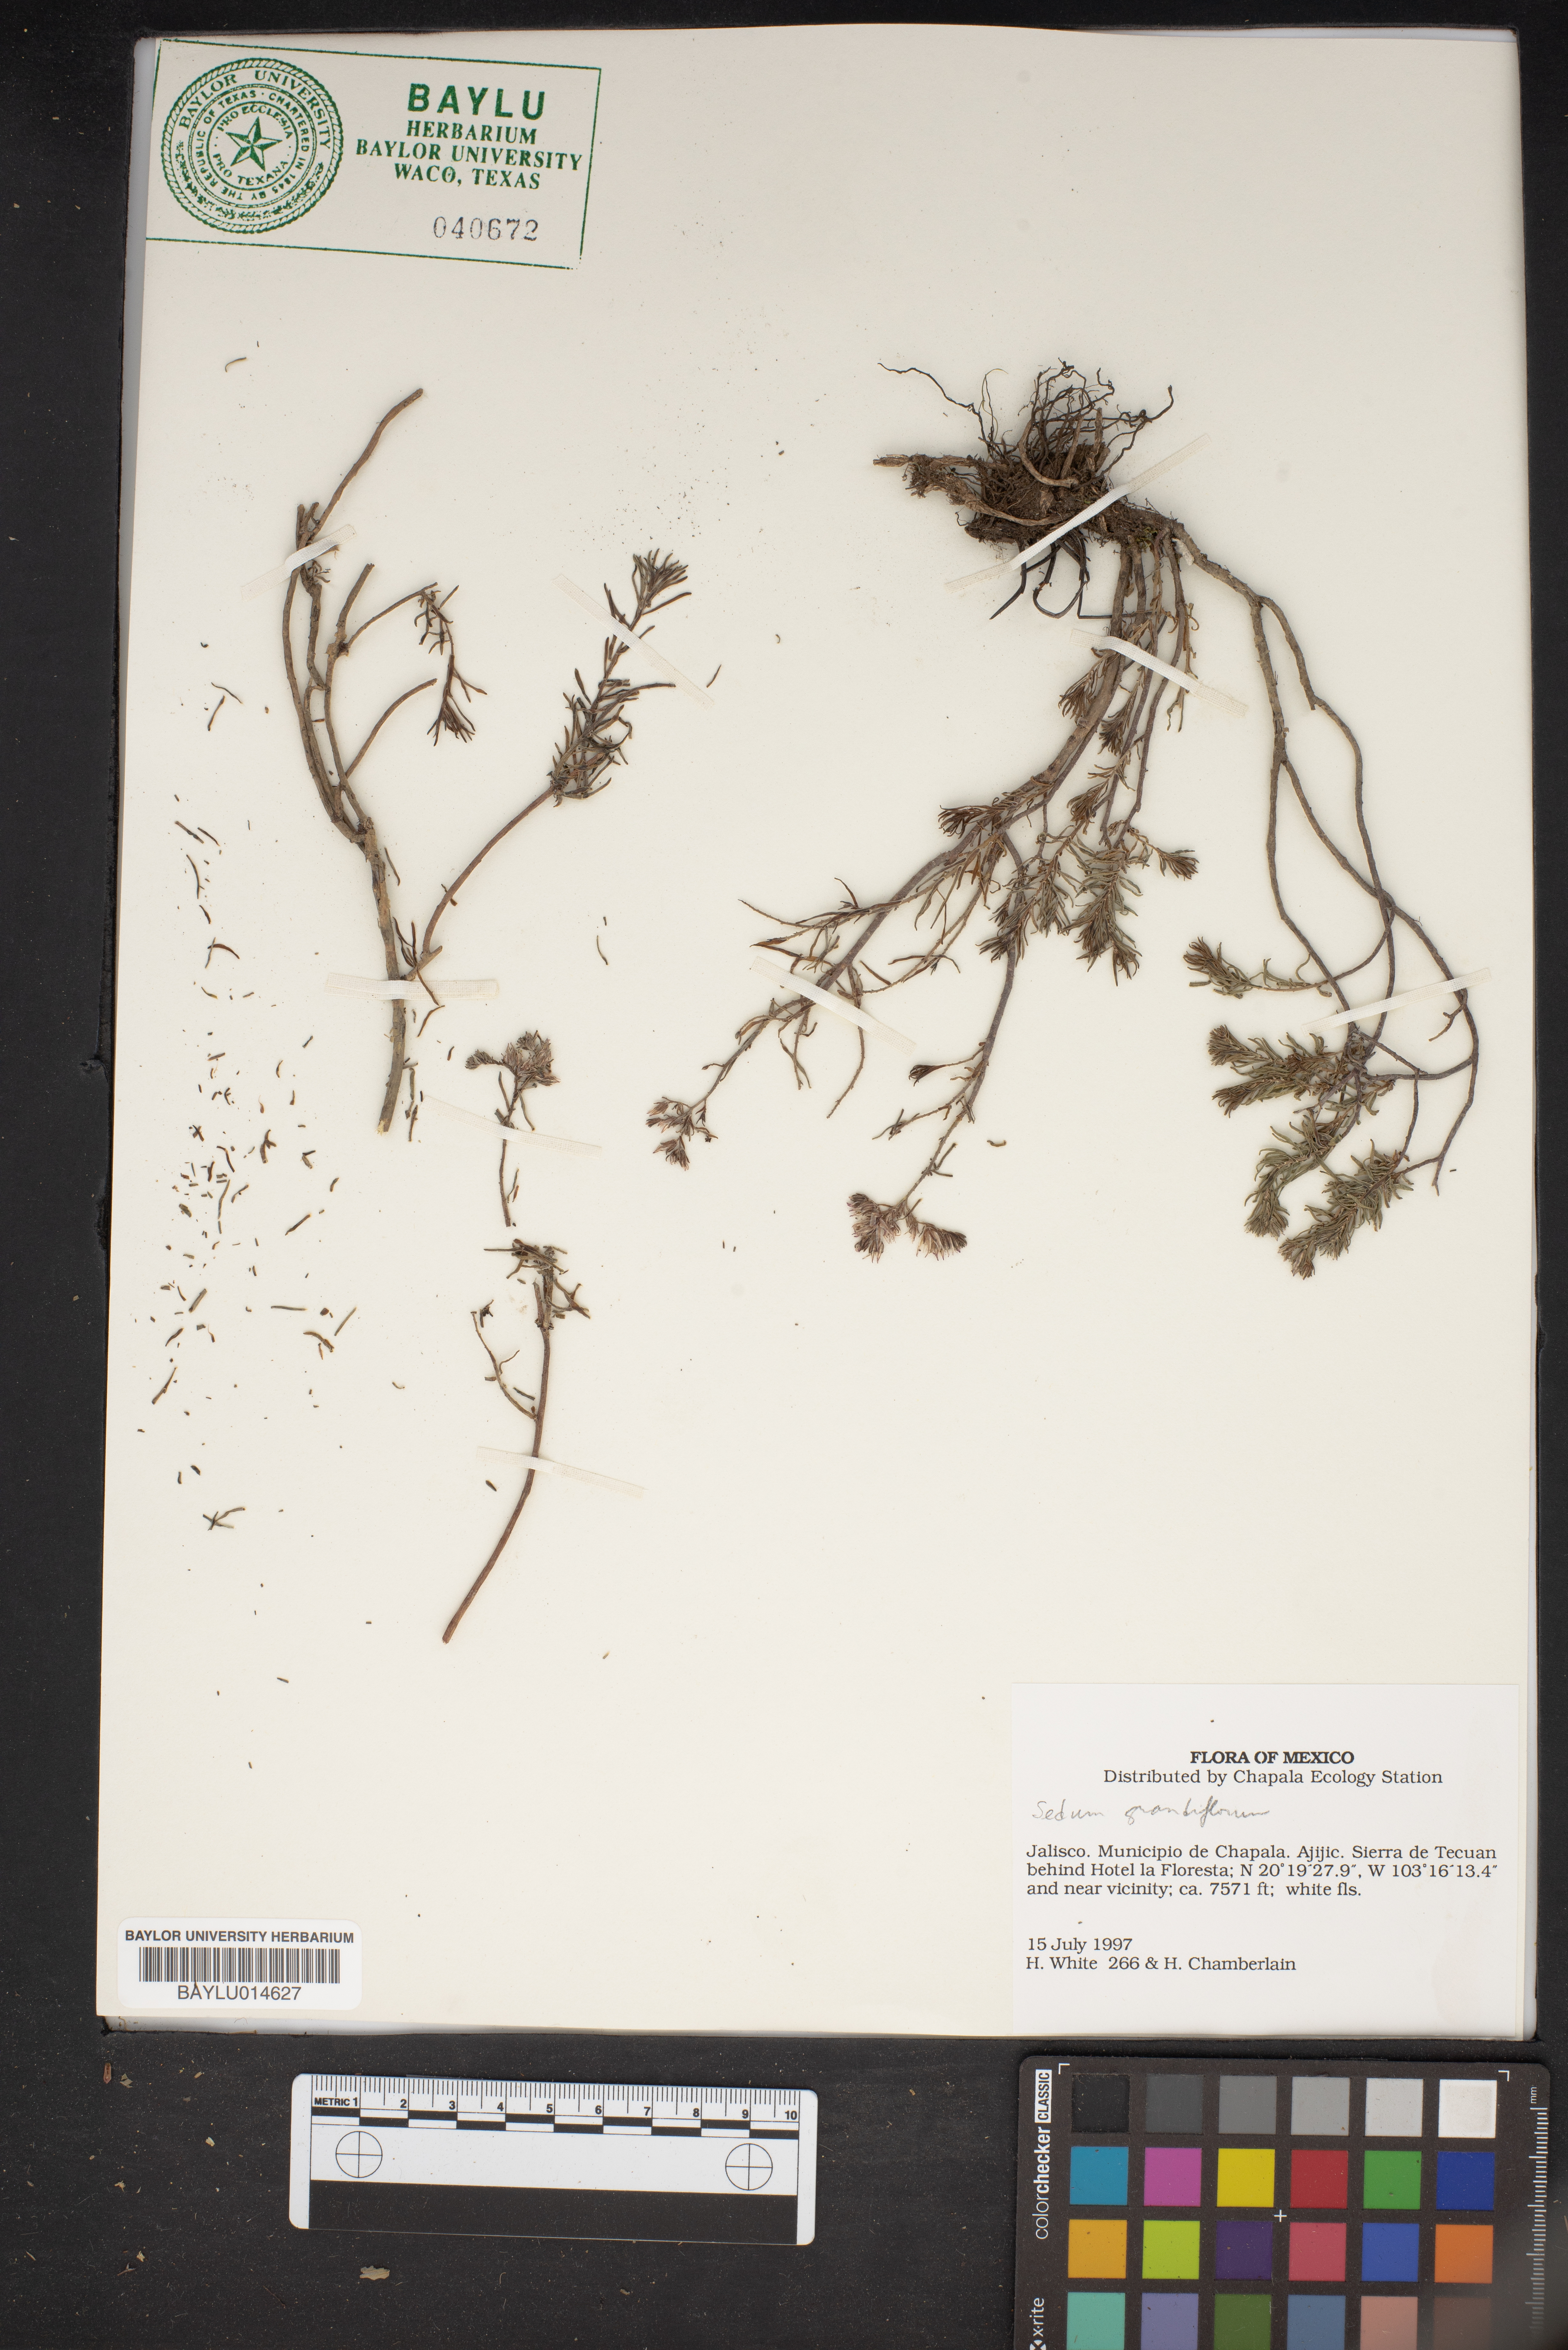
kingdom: Plantae
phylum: Tracheophyta
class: Magnoliopsida
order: Saxifragales
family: Crassulaceae
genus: Sedum
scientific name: Sedum
